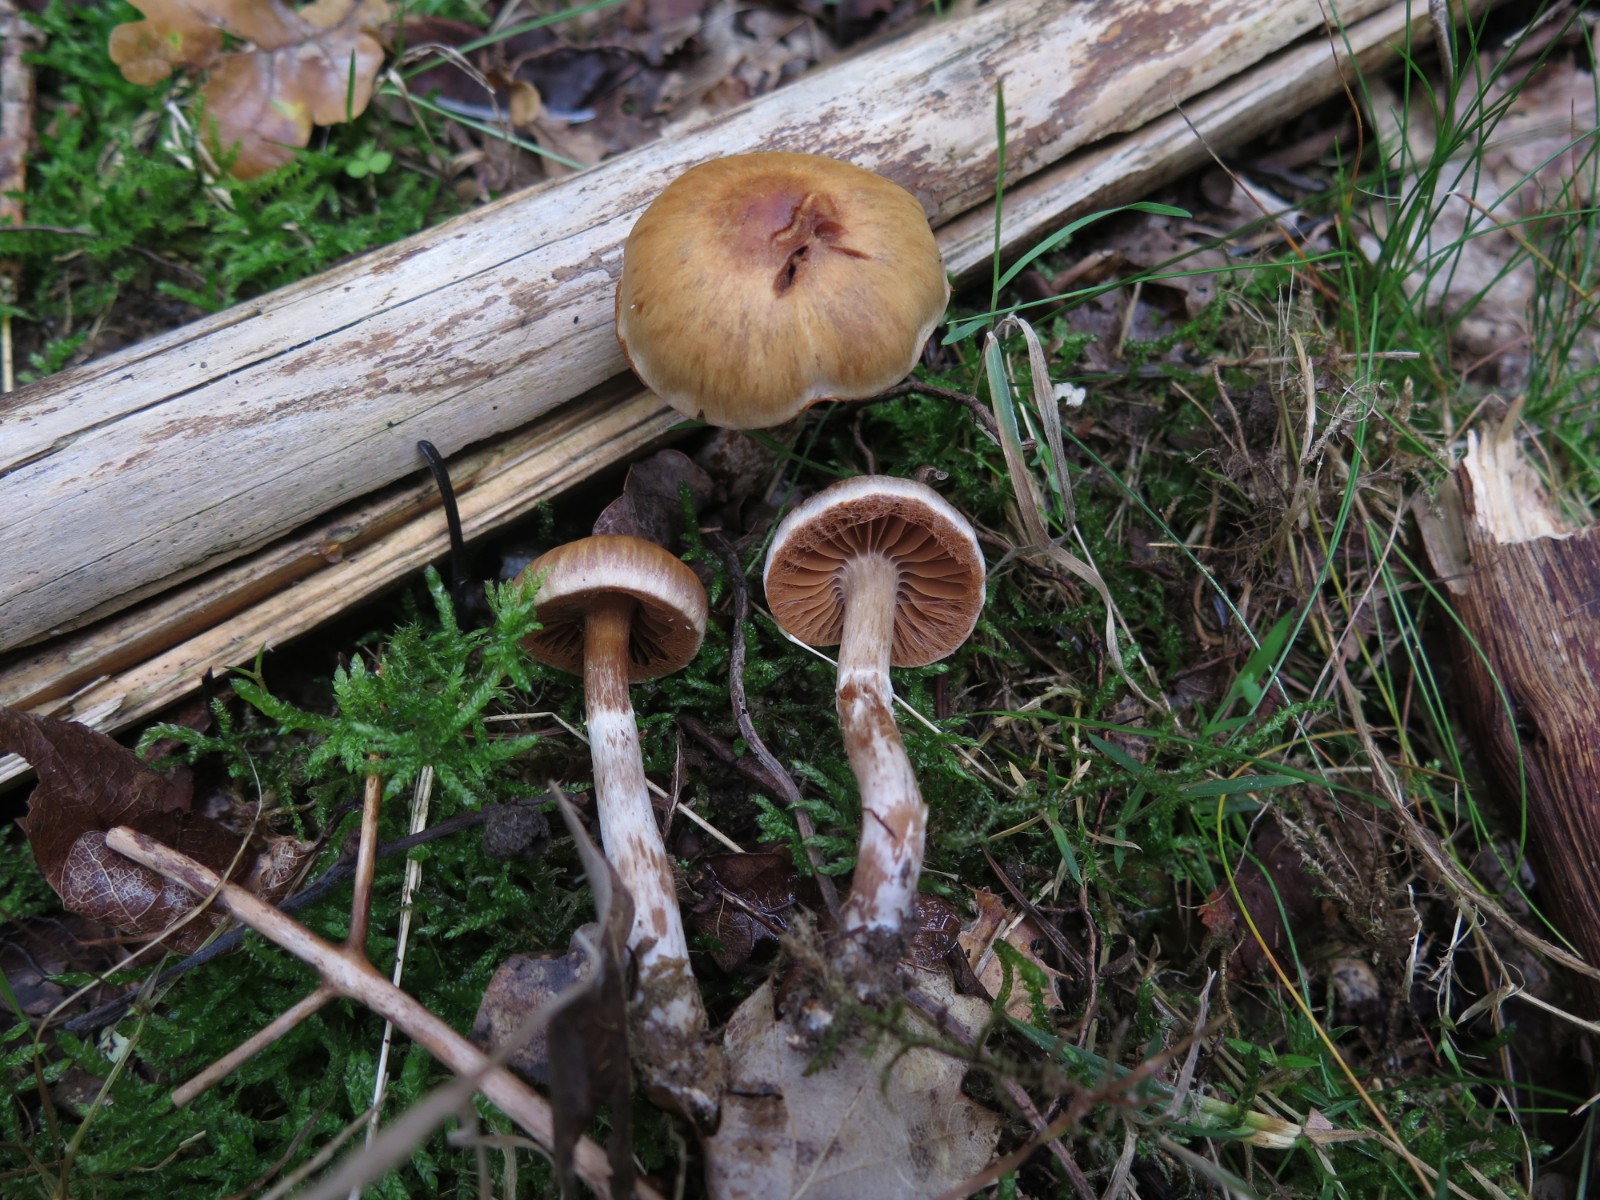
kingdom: Fungi
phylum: Basidiomycota
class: Agaricomycetes
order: Agaricales
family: Cortinariaceae
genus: Cortinarius
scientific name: Cortinarius
